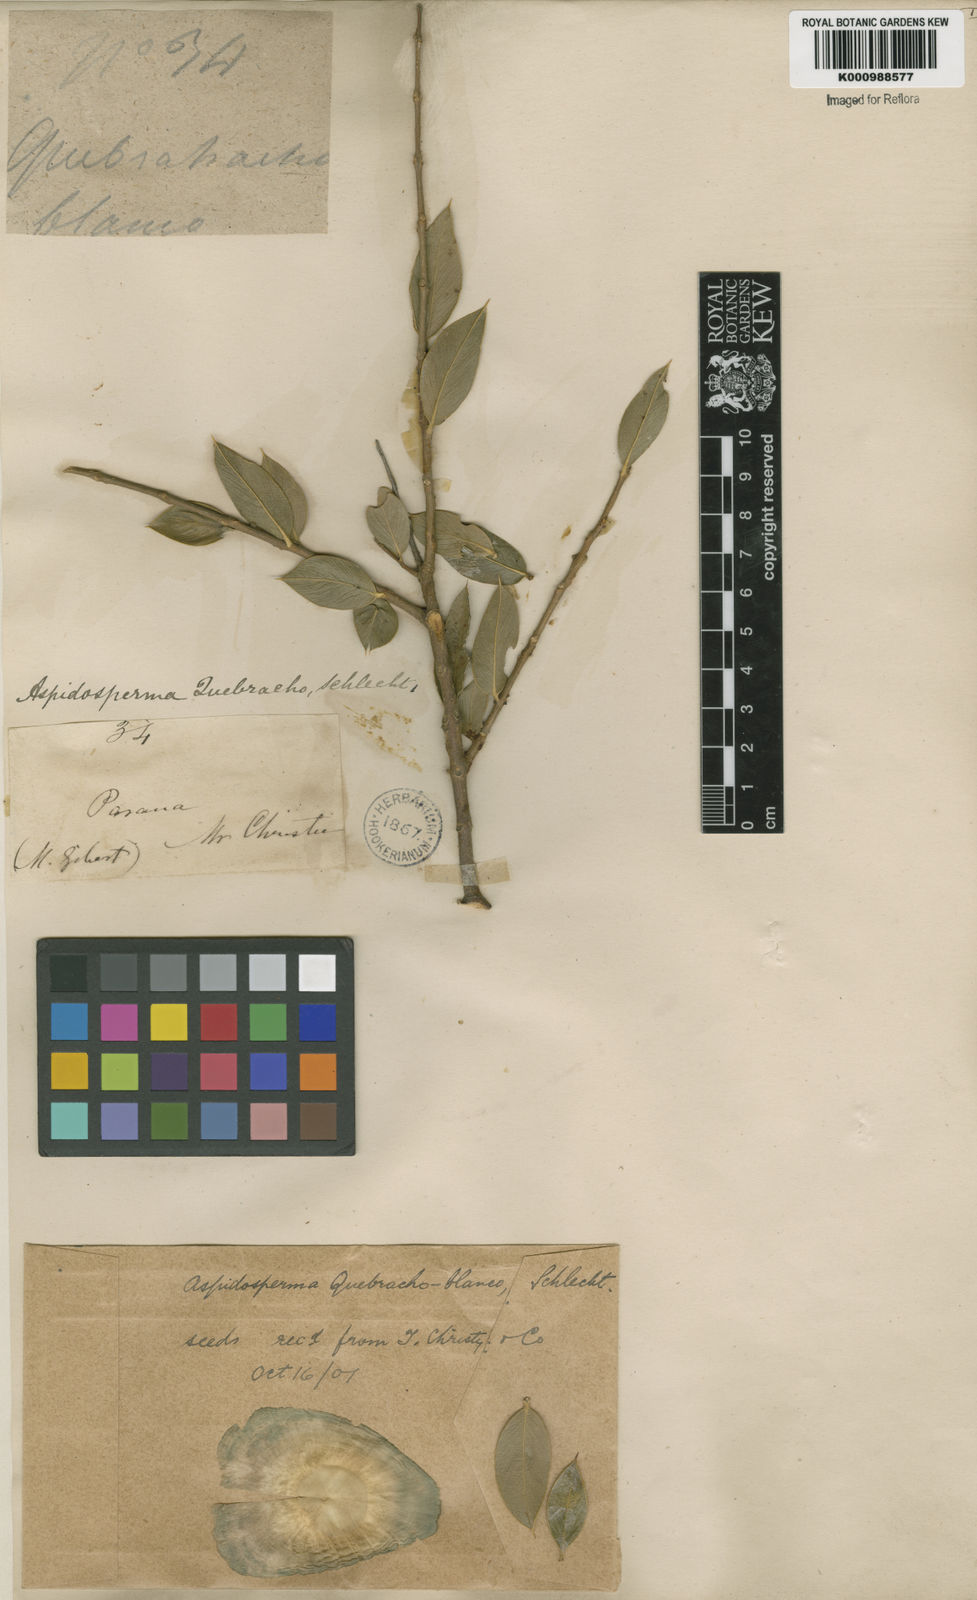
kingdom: Plantae
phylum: Tracheophyta
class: Magnoliopsida
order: Gentianales
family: Apocynaceae
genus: Aspidosperma
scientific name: Aspidosperma quebracho-blanco
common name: White quebracho
